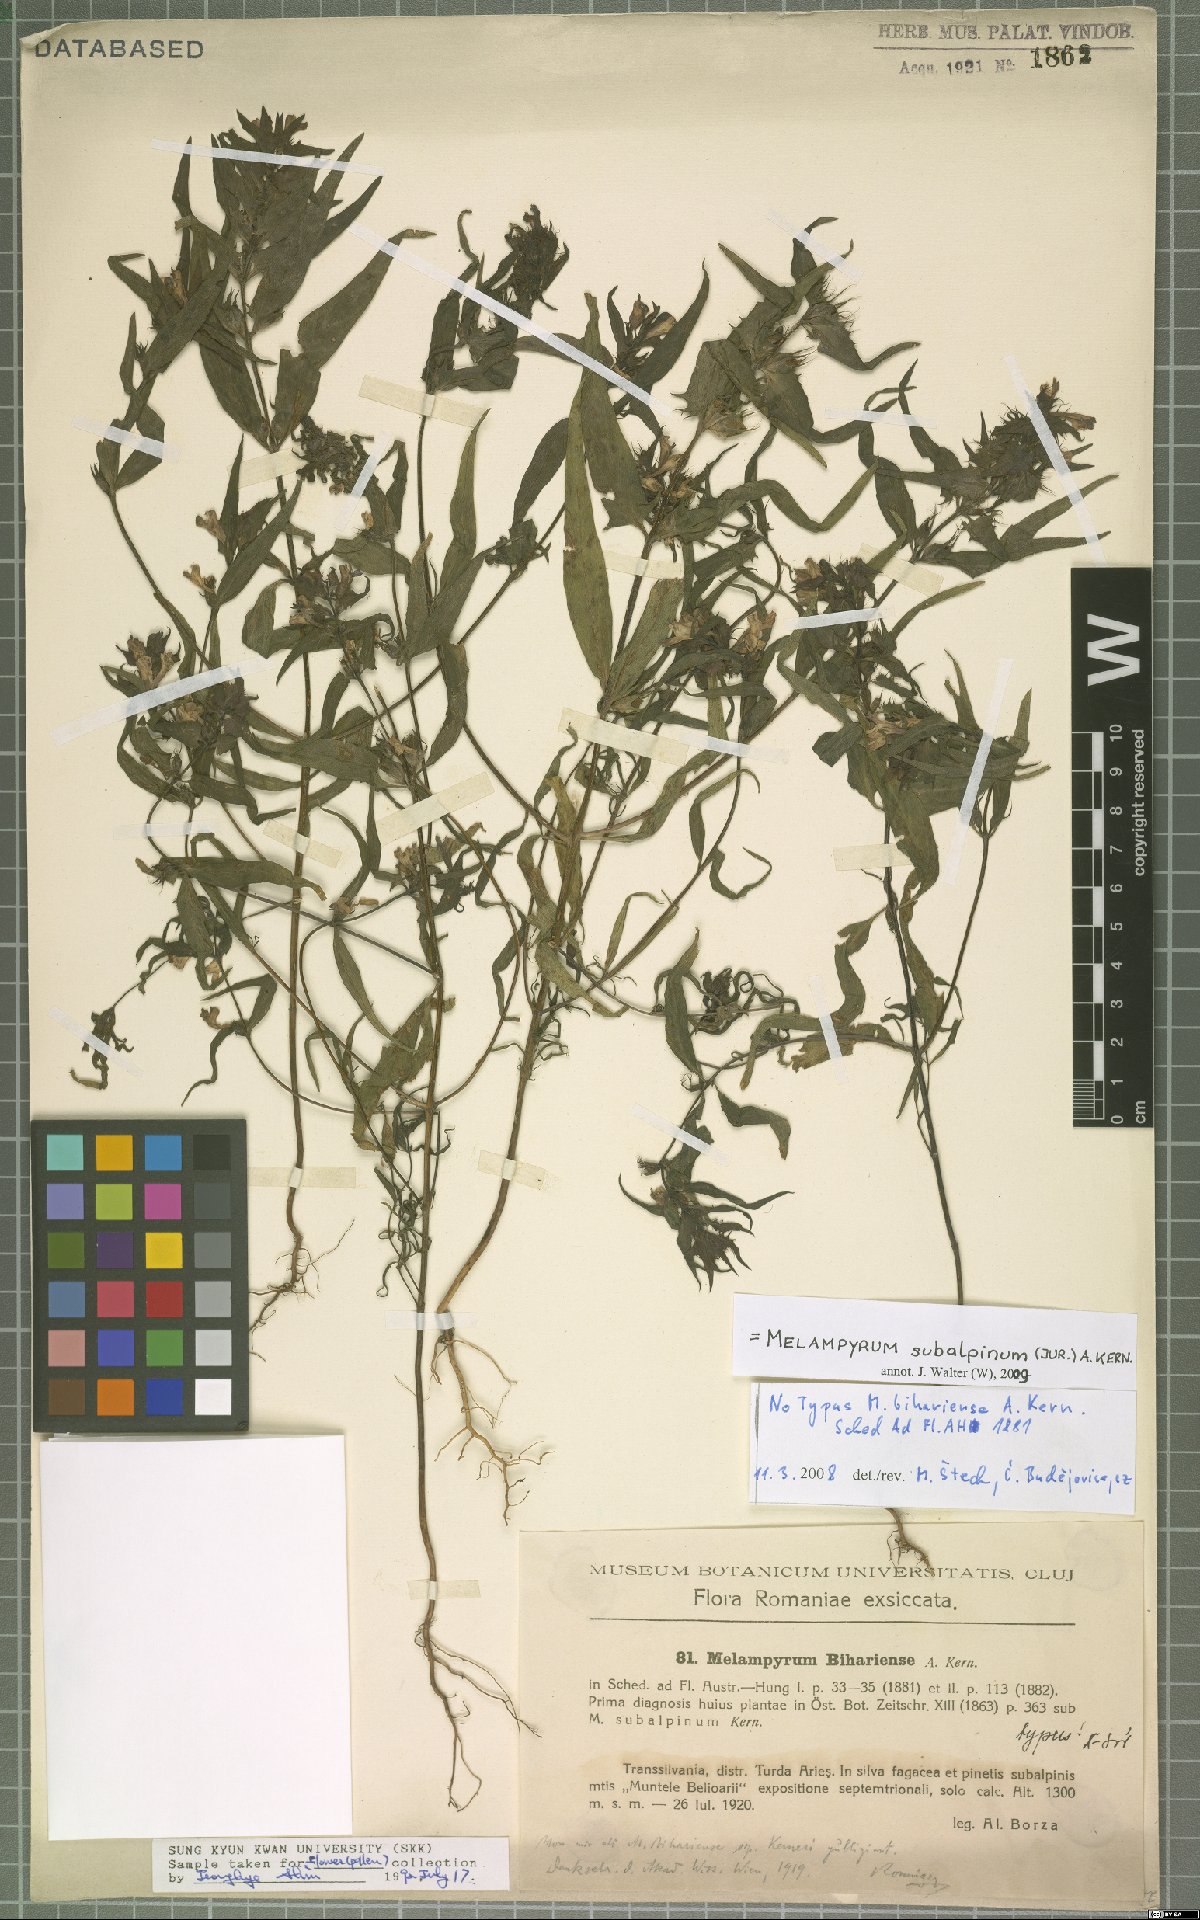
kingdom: Plantae
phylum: Tracheophyta
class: Magnoliopsida
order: Lamiales
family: Orobanchaceae
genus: Melampyrum
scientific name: Melampyrum subalpinum
